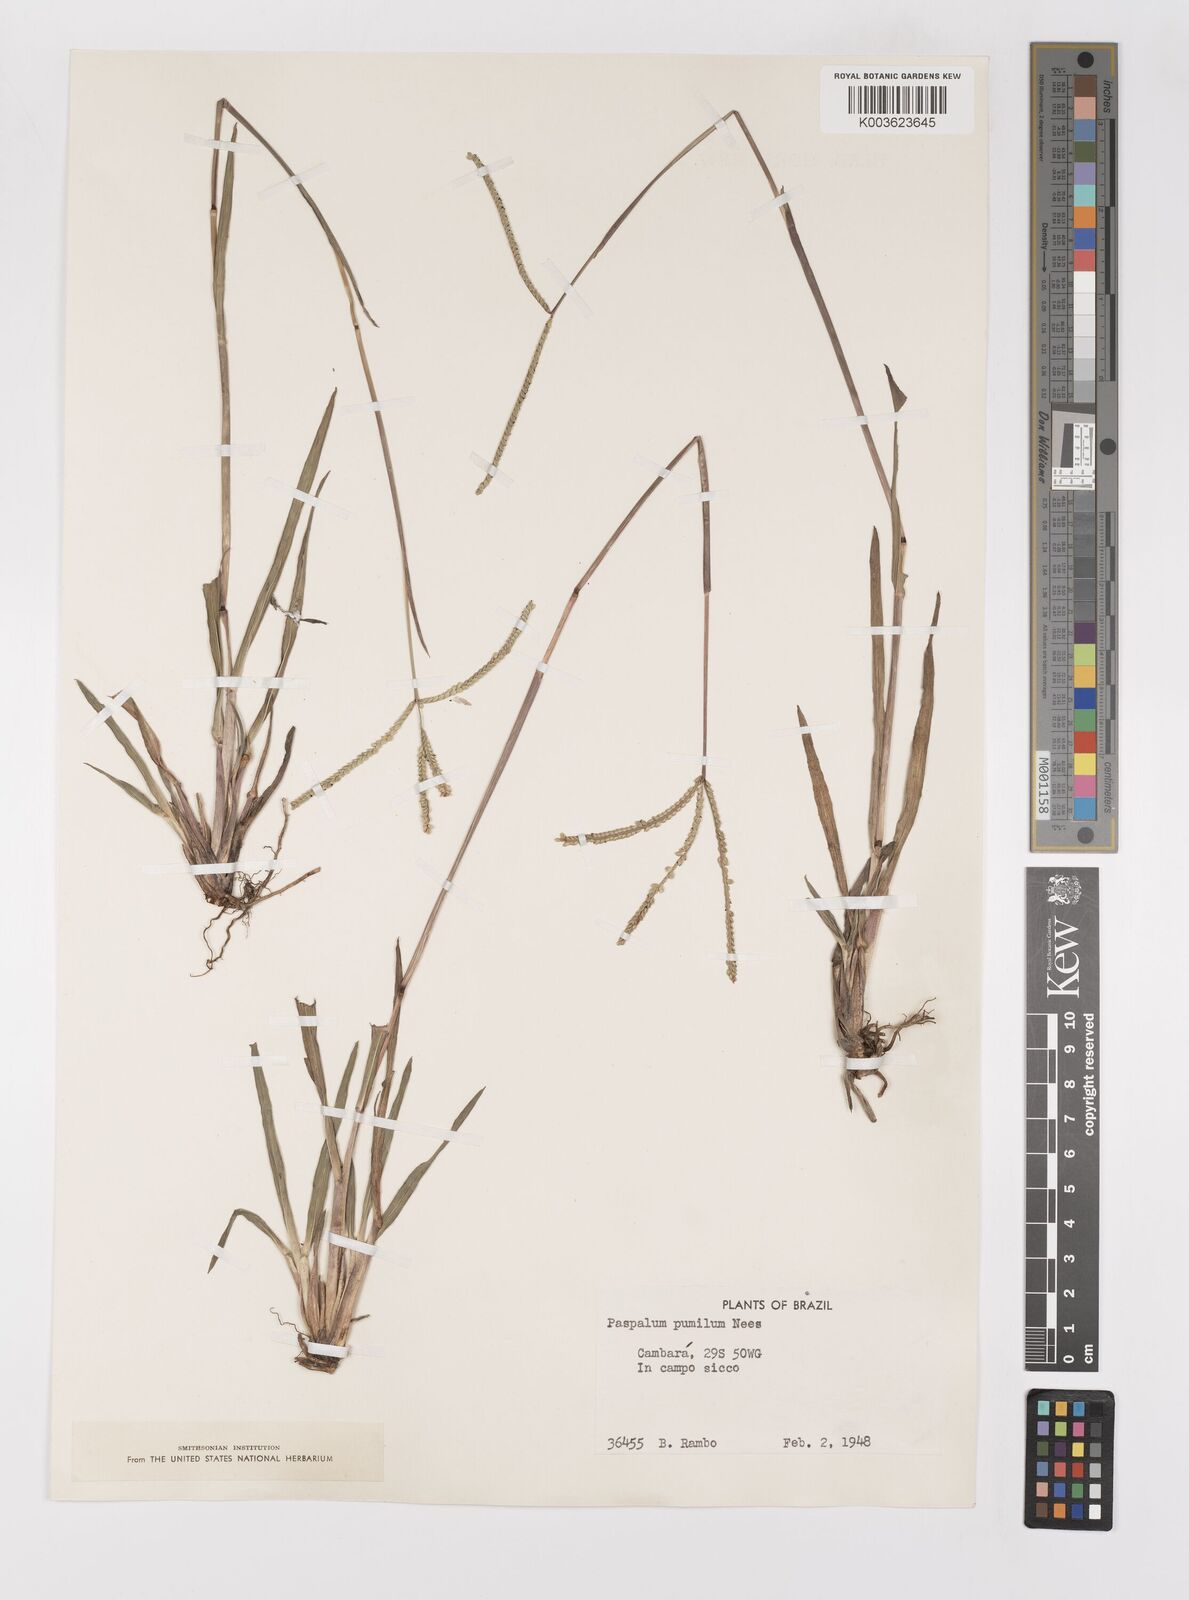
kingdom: Plantae
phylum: Tracheophyta
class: Liliopsida
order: Poales
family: Poaceae
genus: Paspalum
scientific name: Paspalum pumilum
